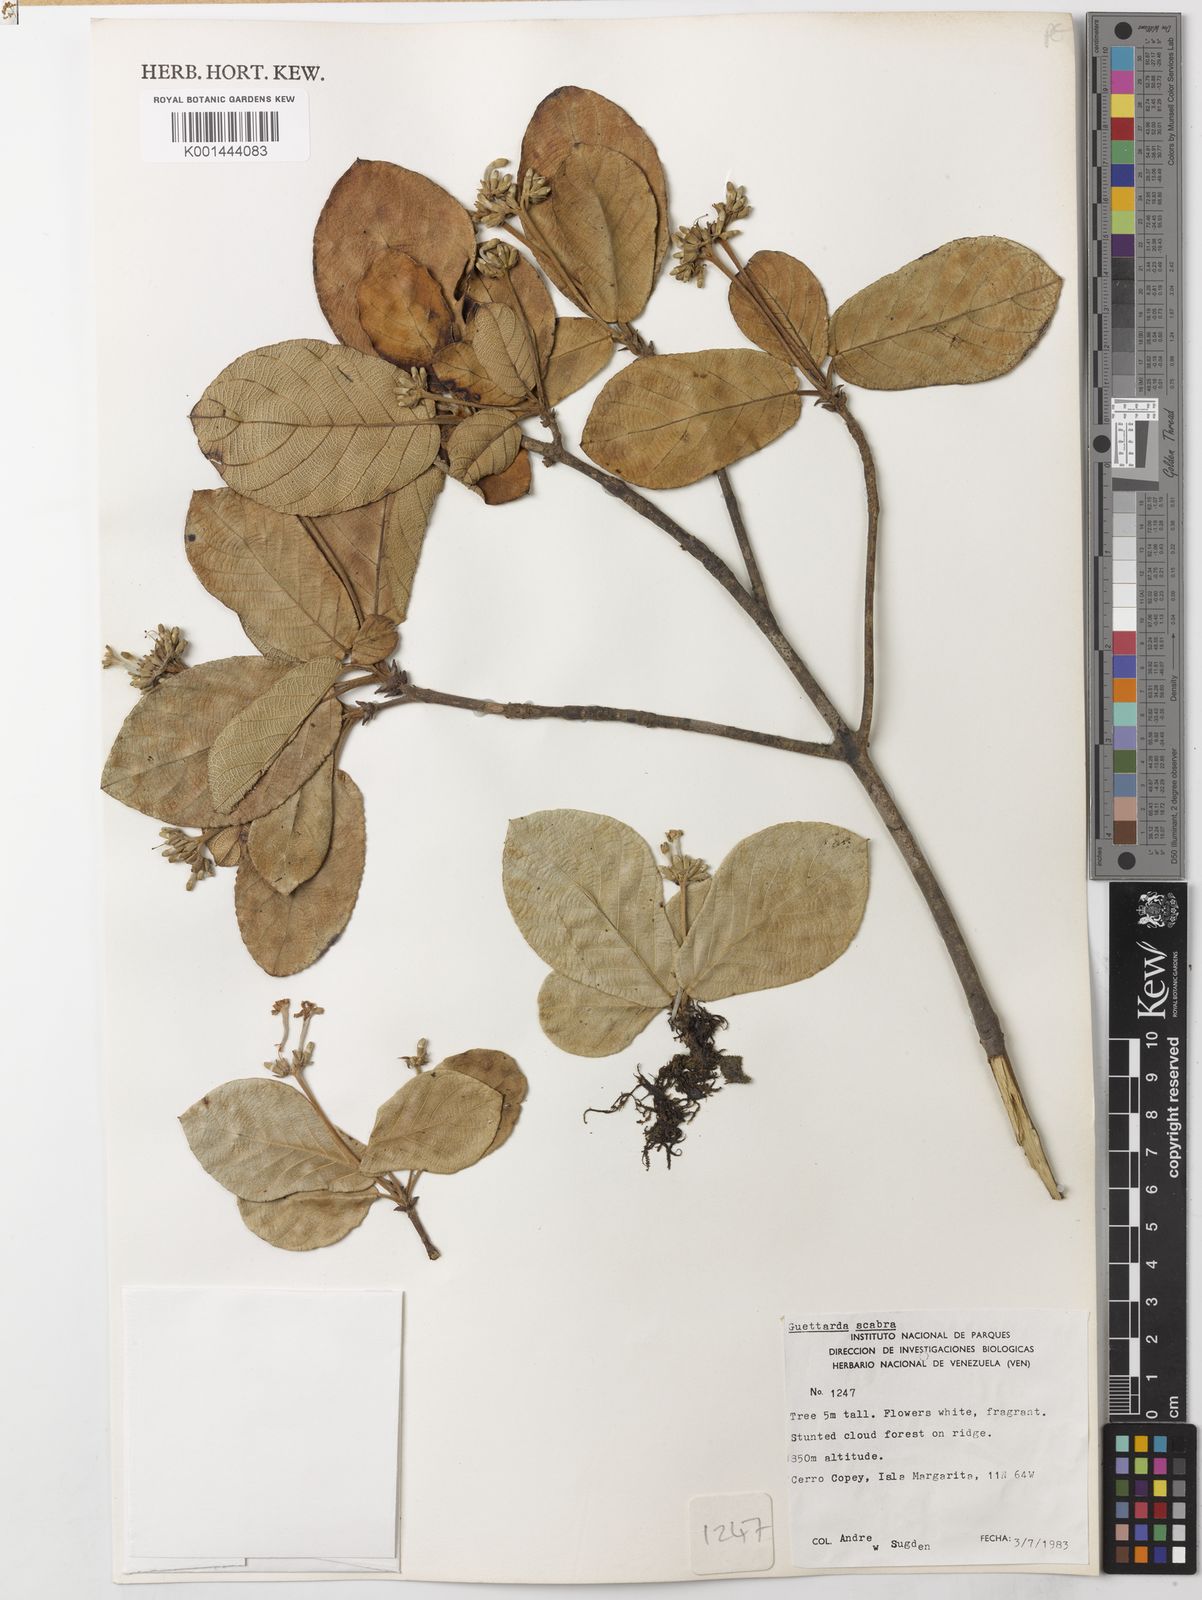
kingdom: Plantae
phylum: Tracheophyta
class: Magnoliopsida
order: Gentianales
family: Rubiaceae
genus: Guettarda
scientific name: Guettarda scabra
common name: Pigeon bay
